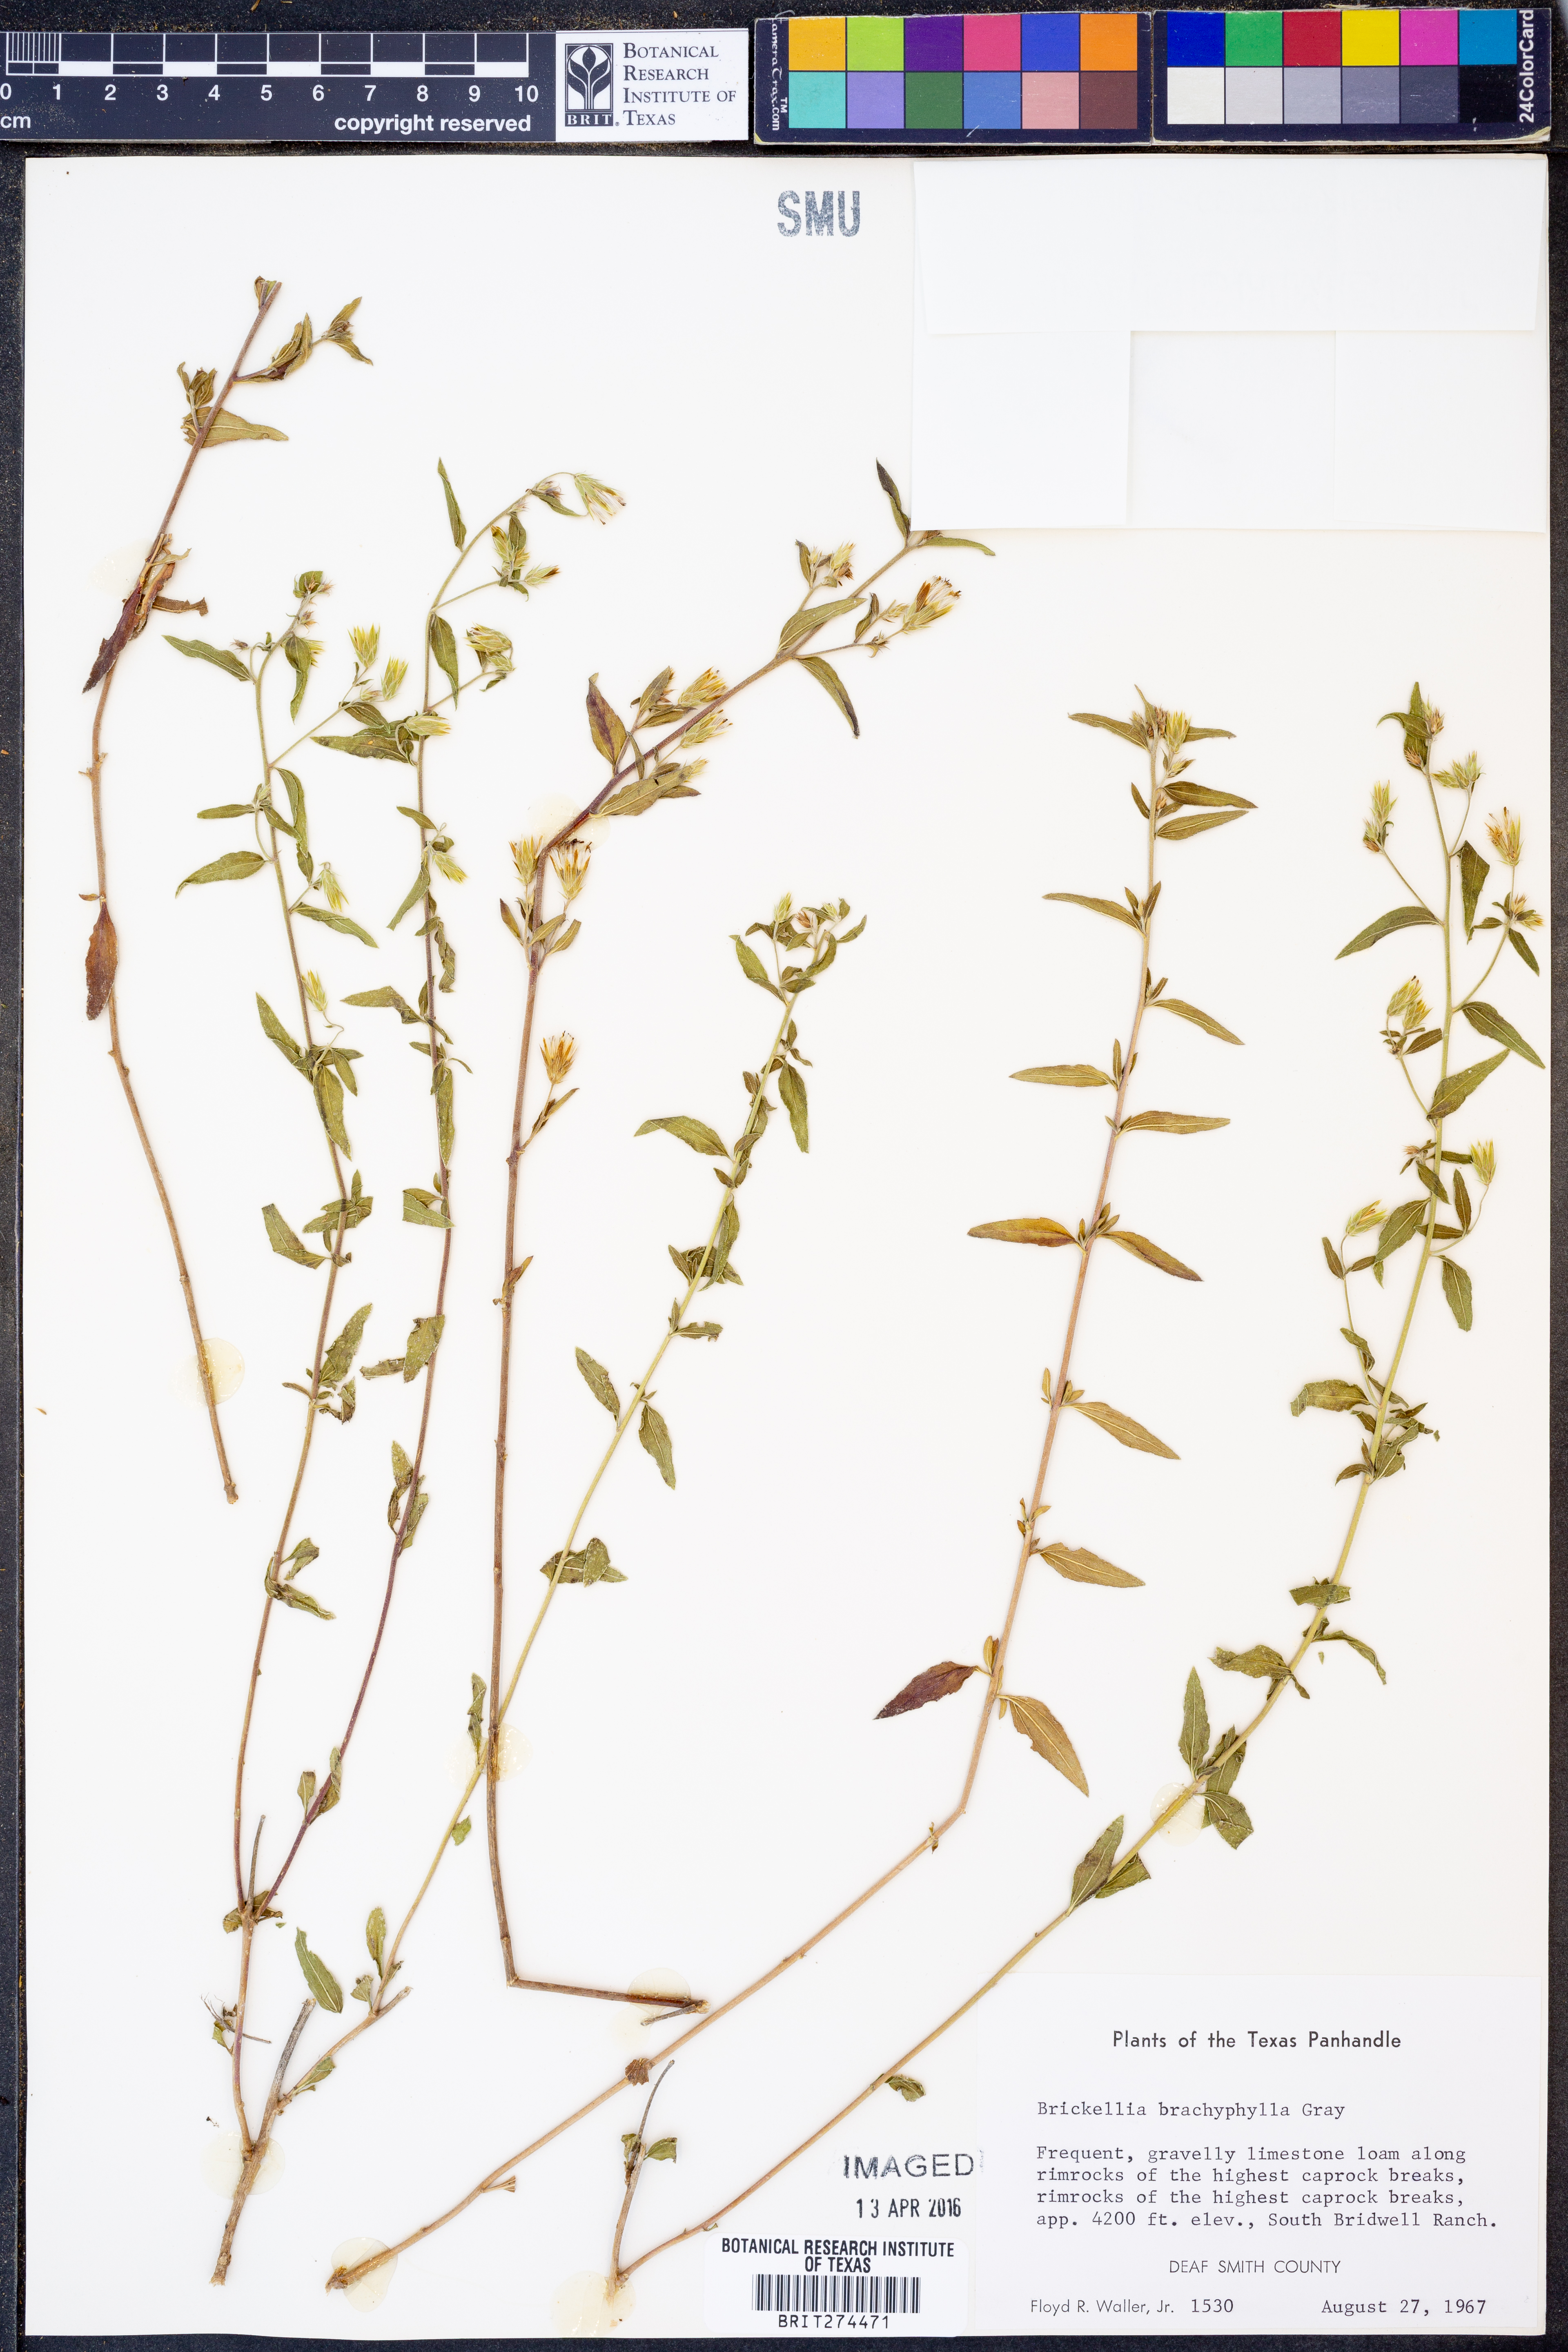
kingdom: Plantae
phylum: Tracheophyta
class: Magnoliopsida
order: Asterales
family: Asteraceae
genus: Brickellia
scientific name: Brickellia brachyphylla
